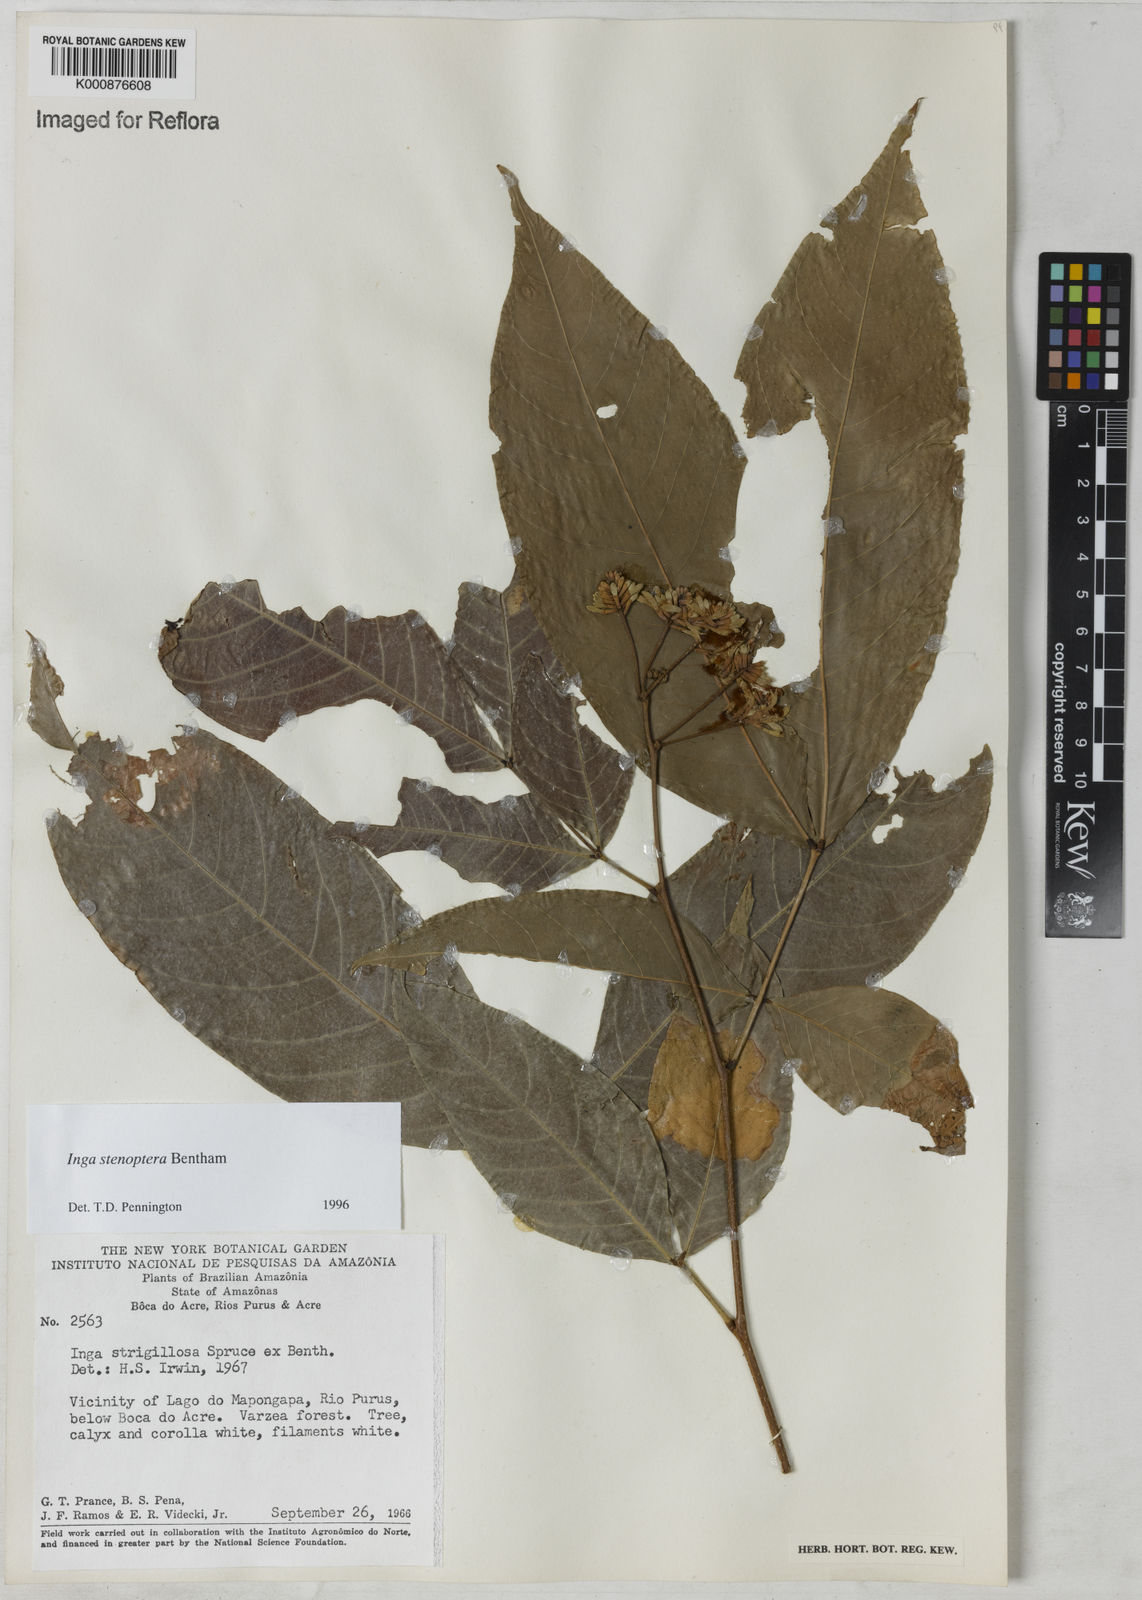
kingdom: Plantae
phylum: Tracheophyta
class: Magnoliopsida
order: Fabales
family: Fabaceae
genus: Inga
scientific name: Inga stenoptera
